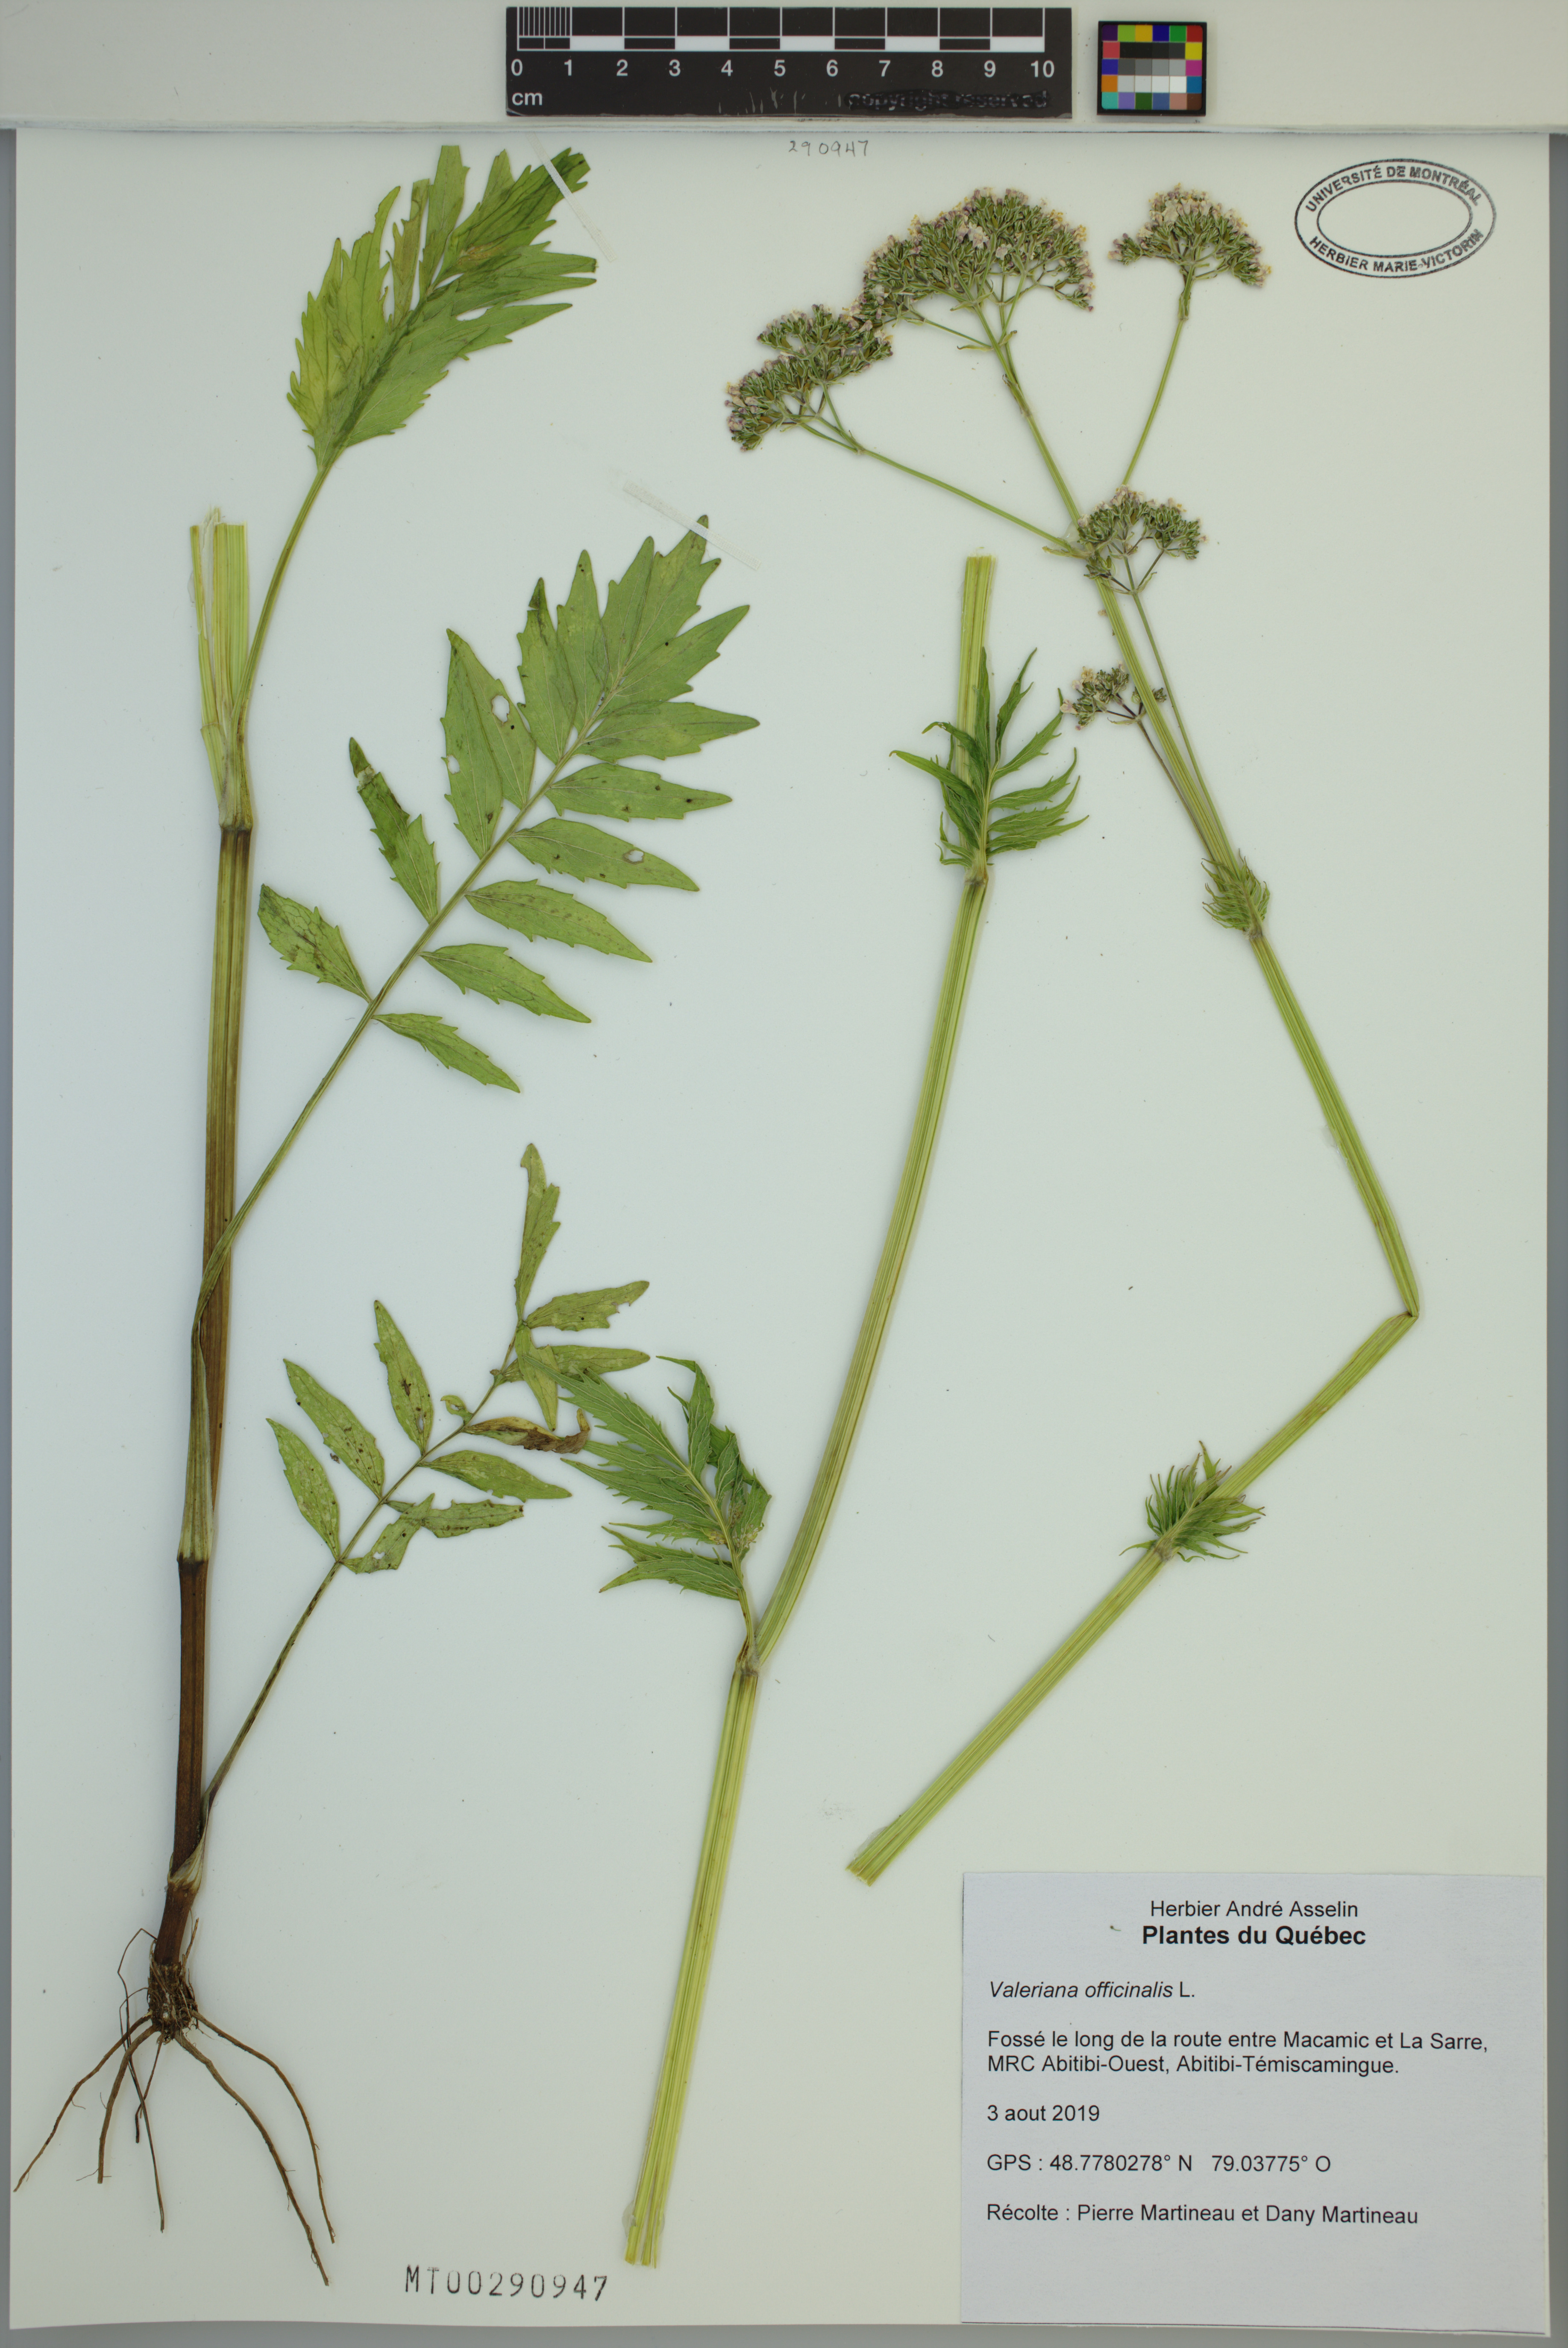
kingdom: Plantae
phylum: Tracheophyta
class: Magnoliopsida
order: Dipsacales
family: Caprifoliaceae
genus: Valeriana
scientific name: Valeriana officinalis
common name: Common valerian
